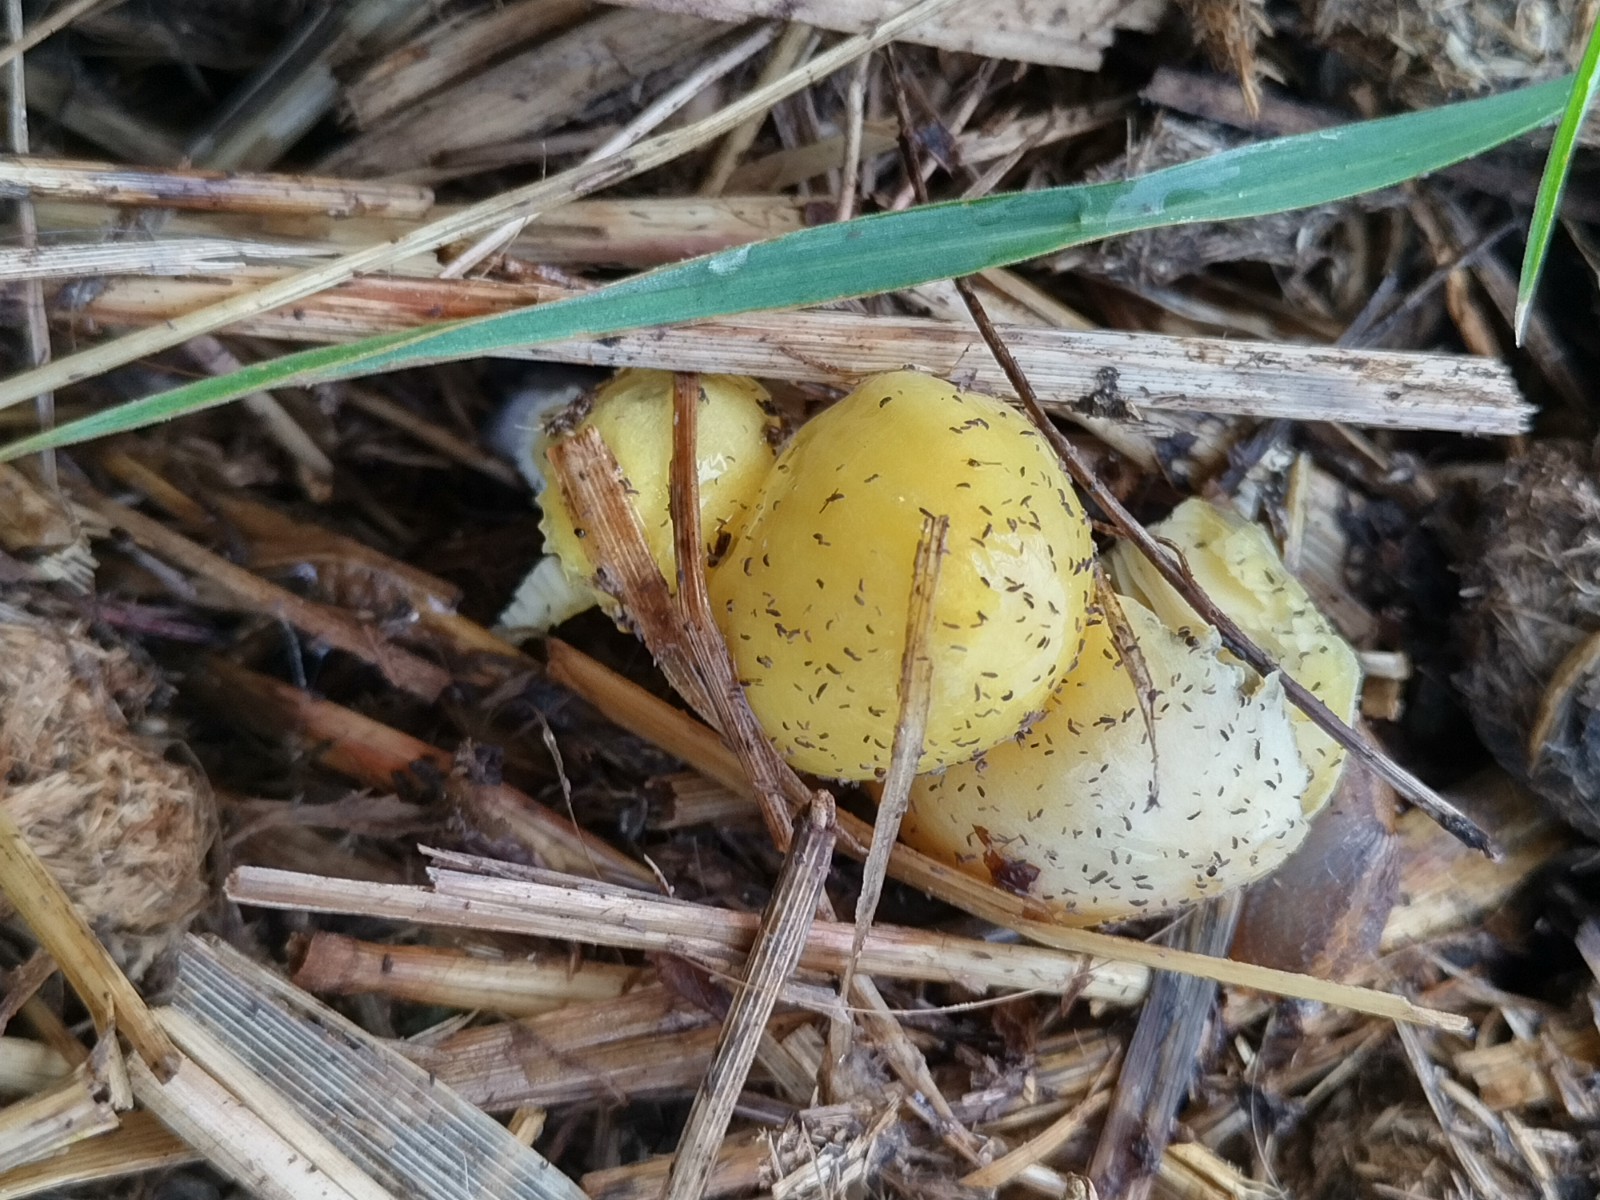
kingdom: Fungi
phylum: Basidiomycota
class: Agaricomycetes
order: Agaricales
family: Bolbitiaceae
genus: Bolbitius
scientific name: Bolbitius titubans
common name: almindelig gulhat
